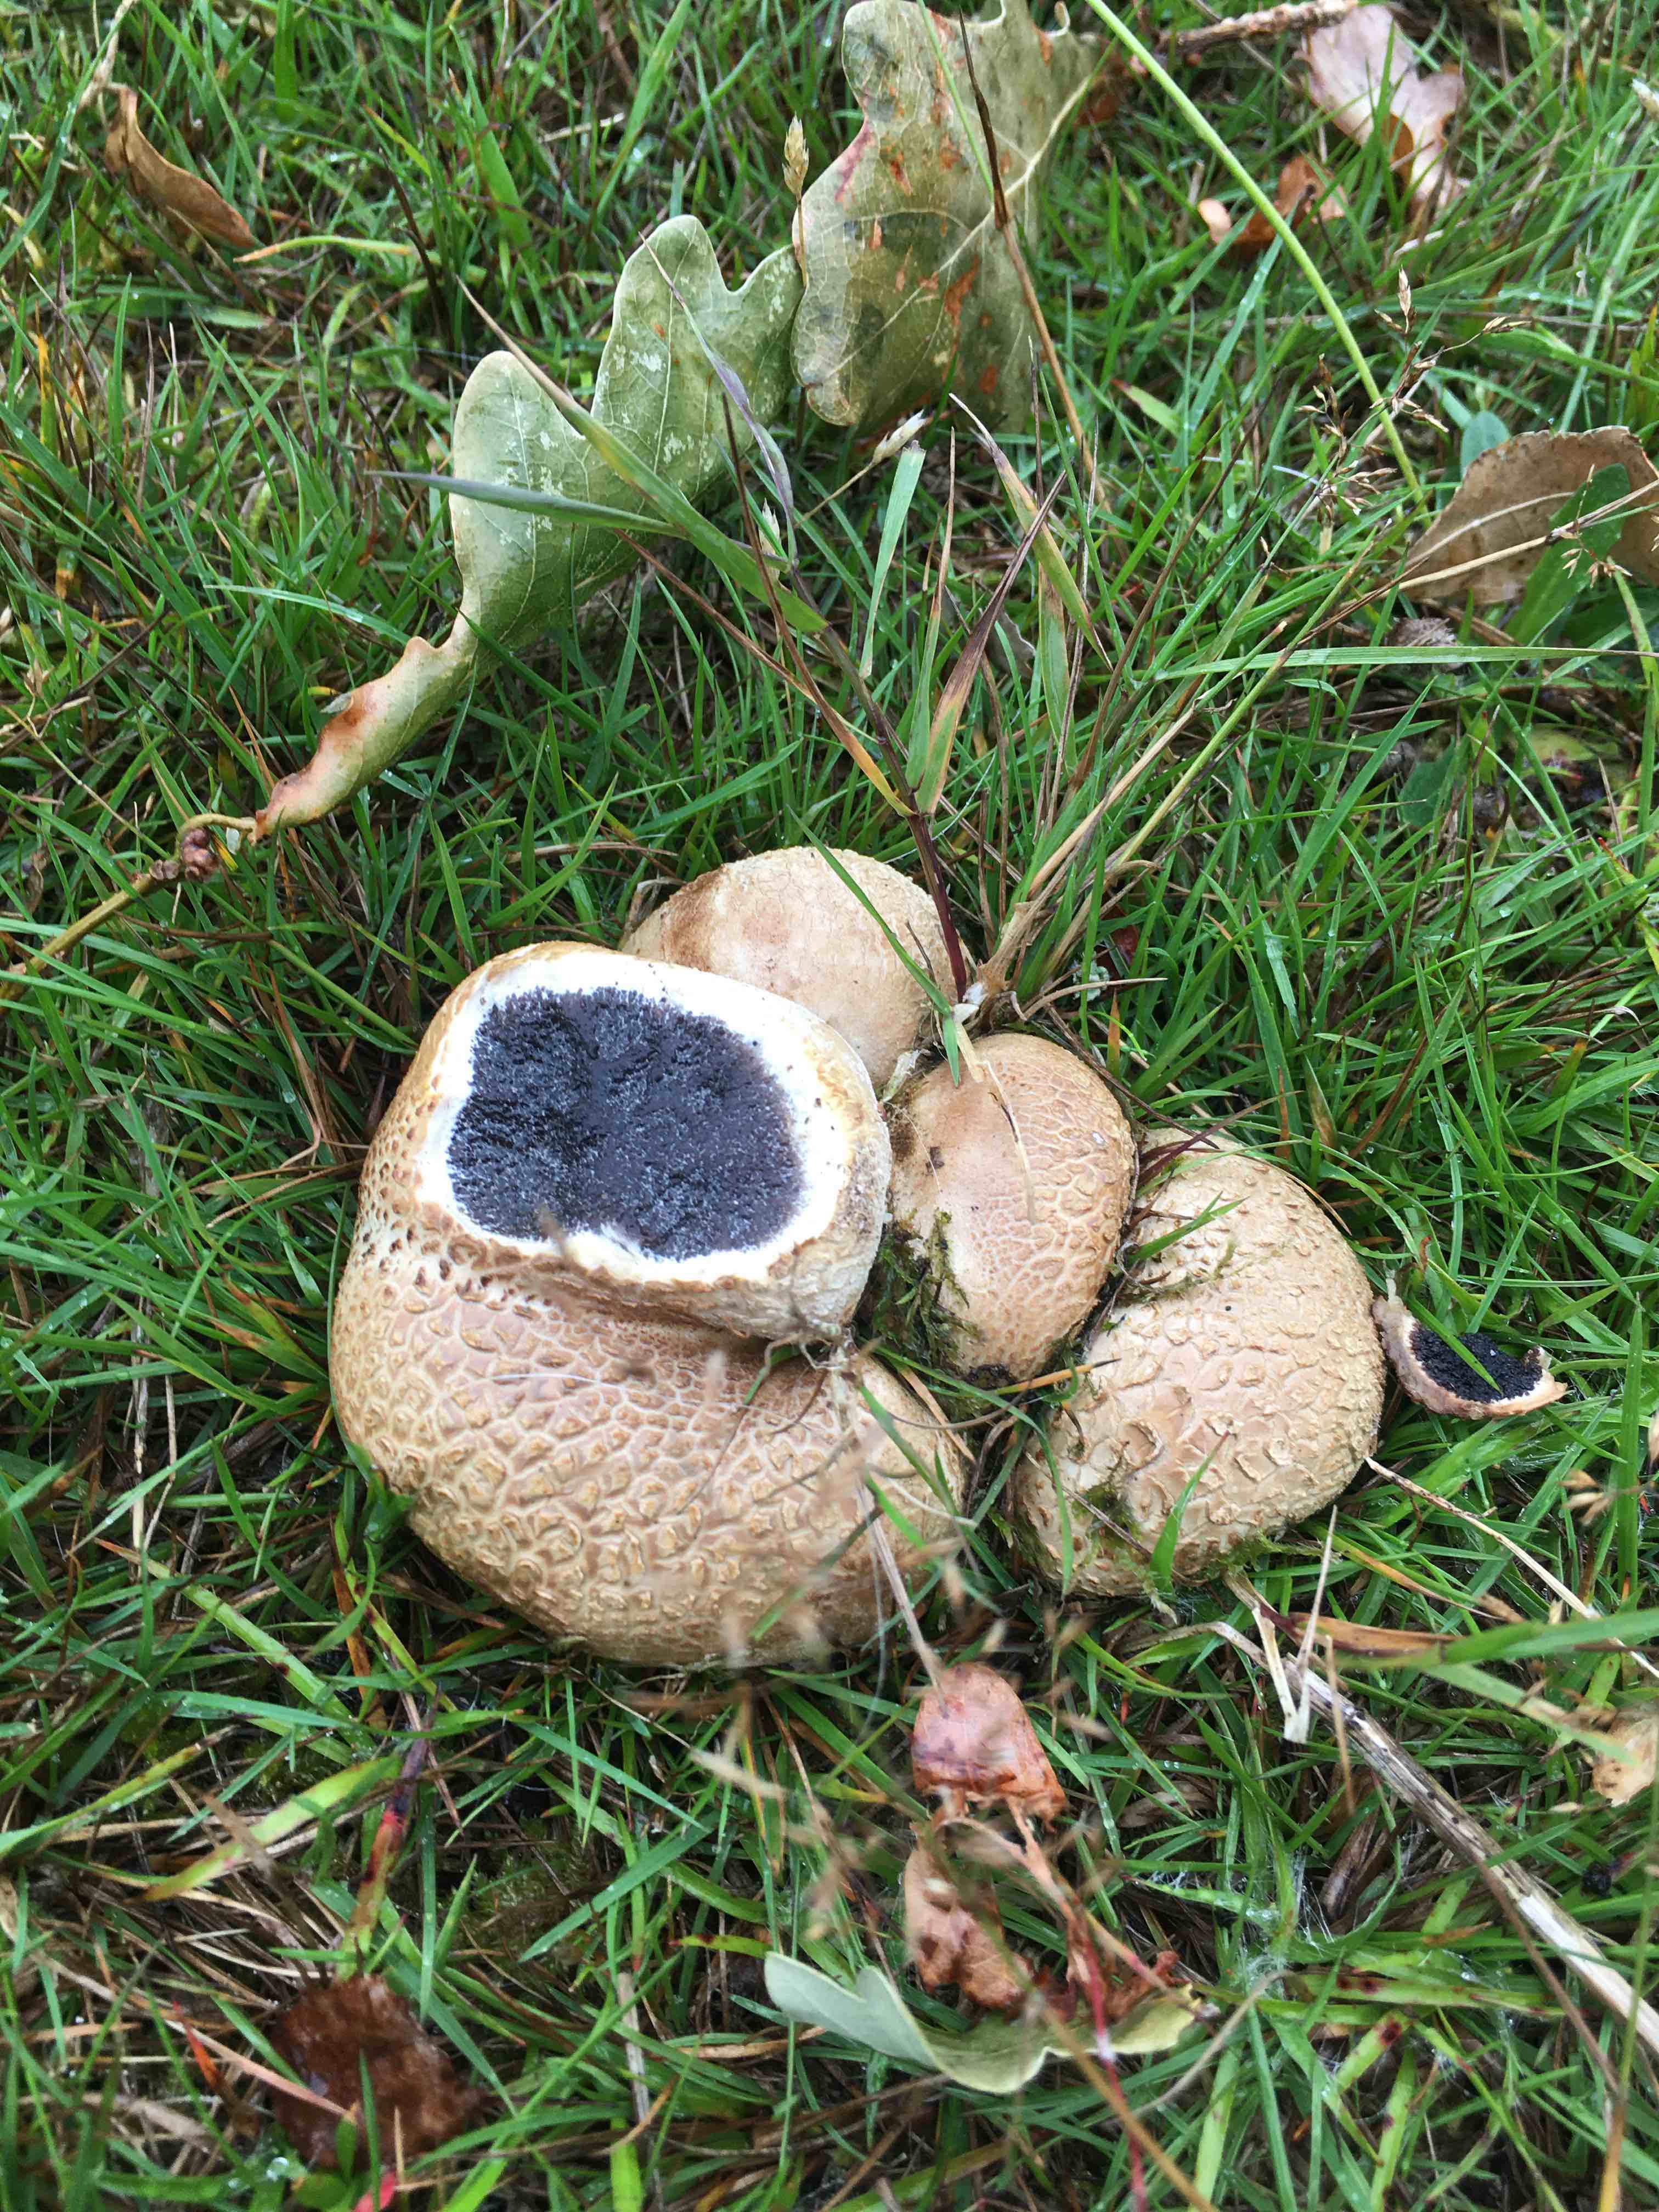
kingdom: Fungi
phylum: Basidiomycota
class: Agaricomycetes
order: Boletales
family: Sclerodermataceae
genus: Scleroderma
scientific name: Scleroderma citrinum
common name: almindelig bruskbold
